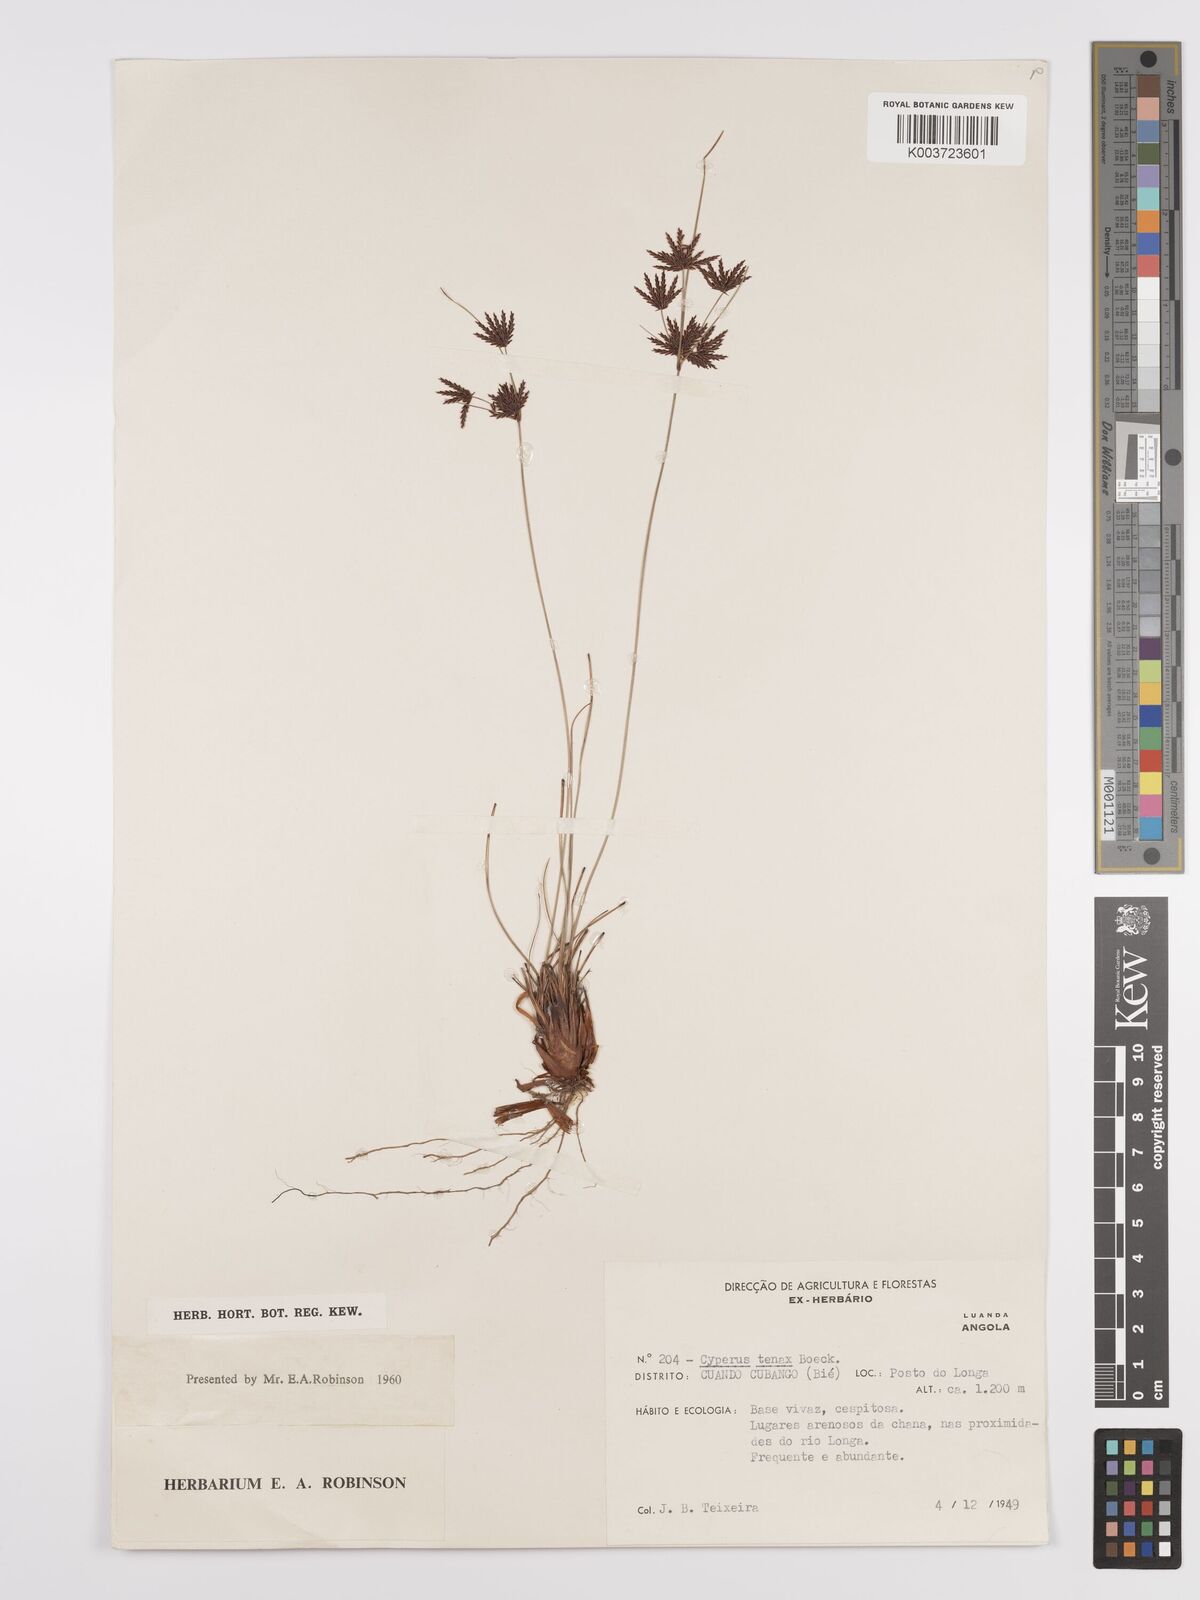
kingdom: Plantae
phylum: Tracheophyta
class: Liliopsida
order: Poales
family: Cyperaceae
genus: Cyperus
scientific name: Cyperus tenax
